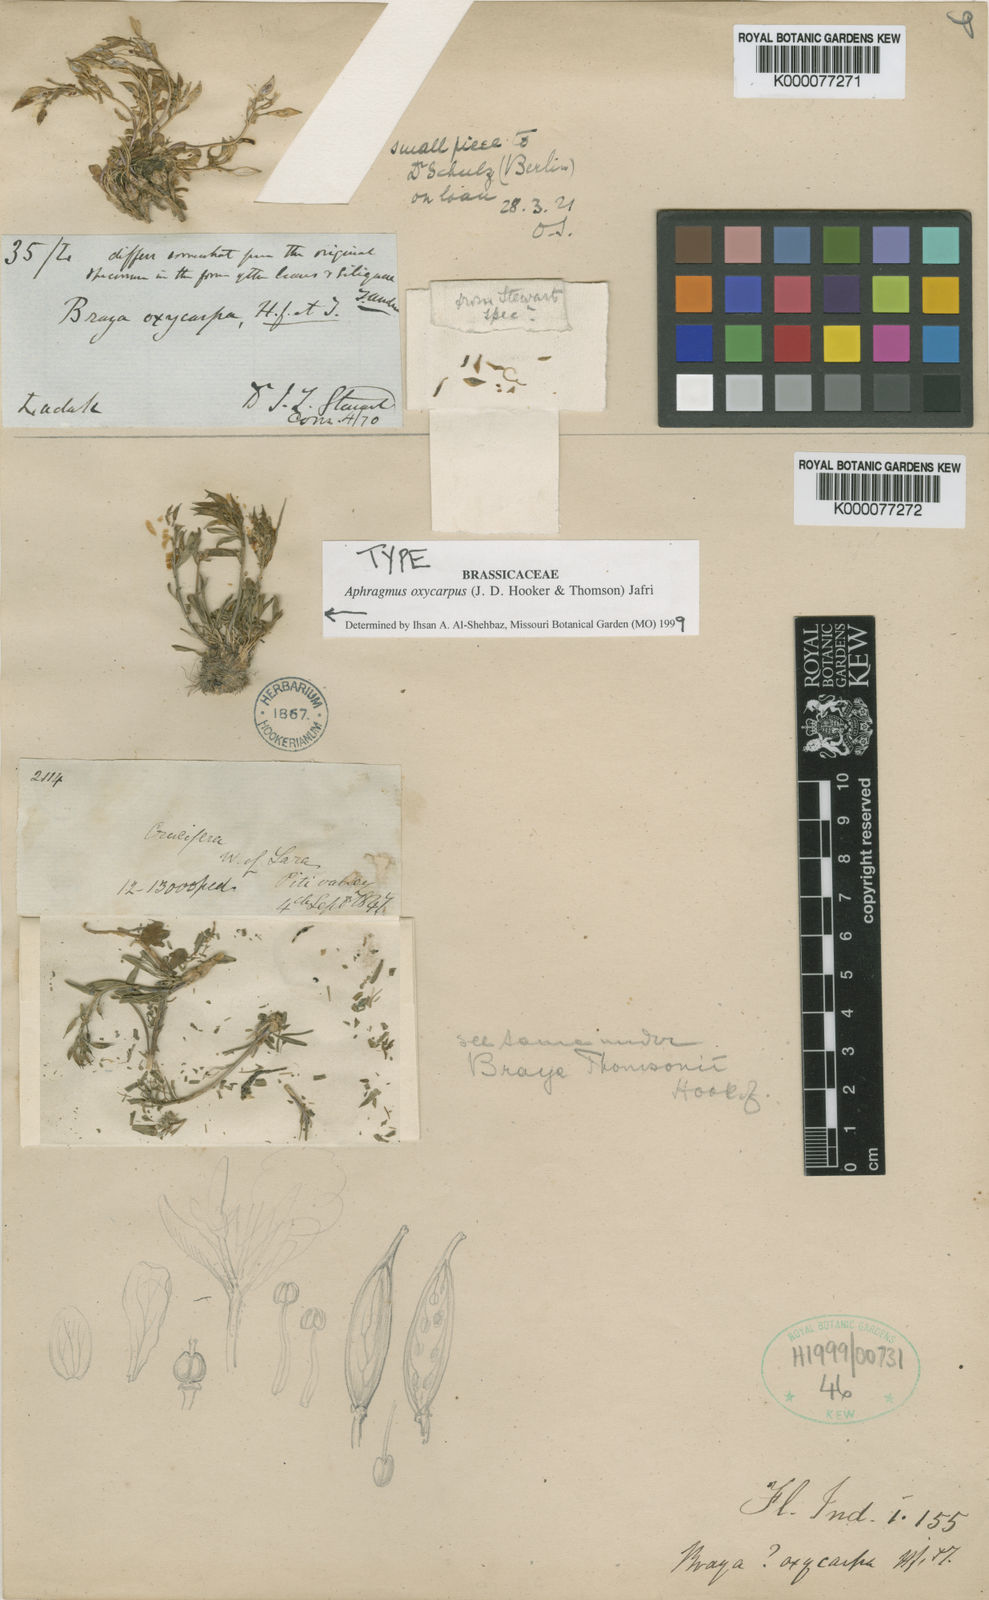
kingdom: Plantae
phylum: Tracheophyta
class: Magnoliopsida
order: Brassicales
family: Brassicaceae
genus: Aphragmus
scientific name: Aphragmus oxycarpus
